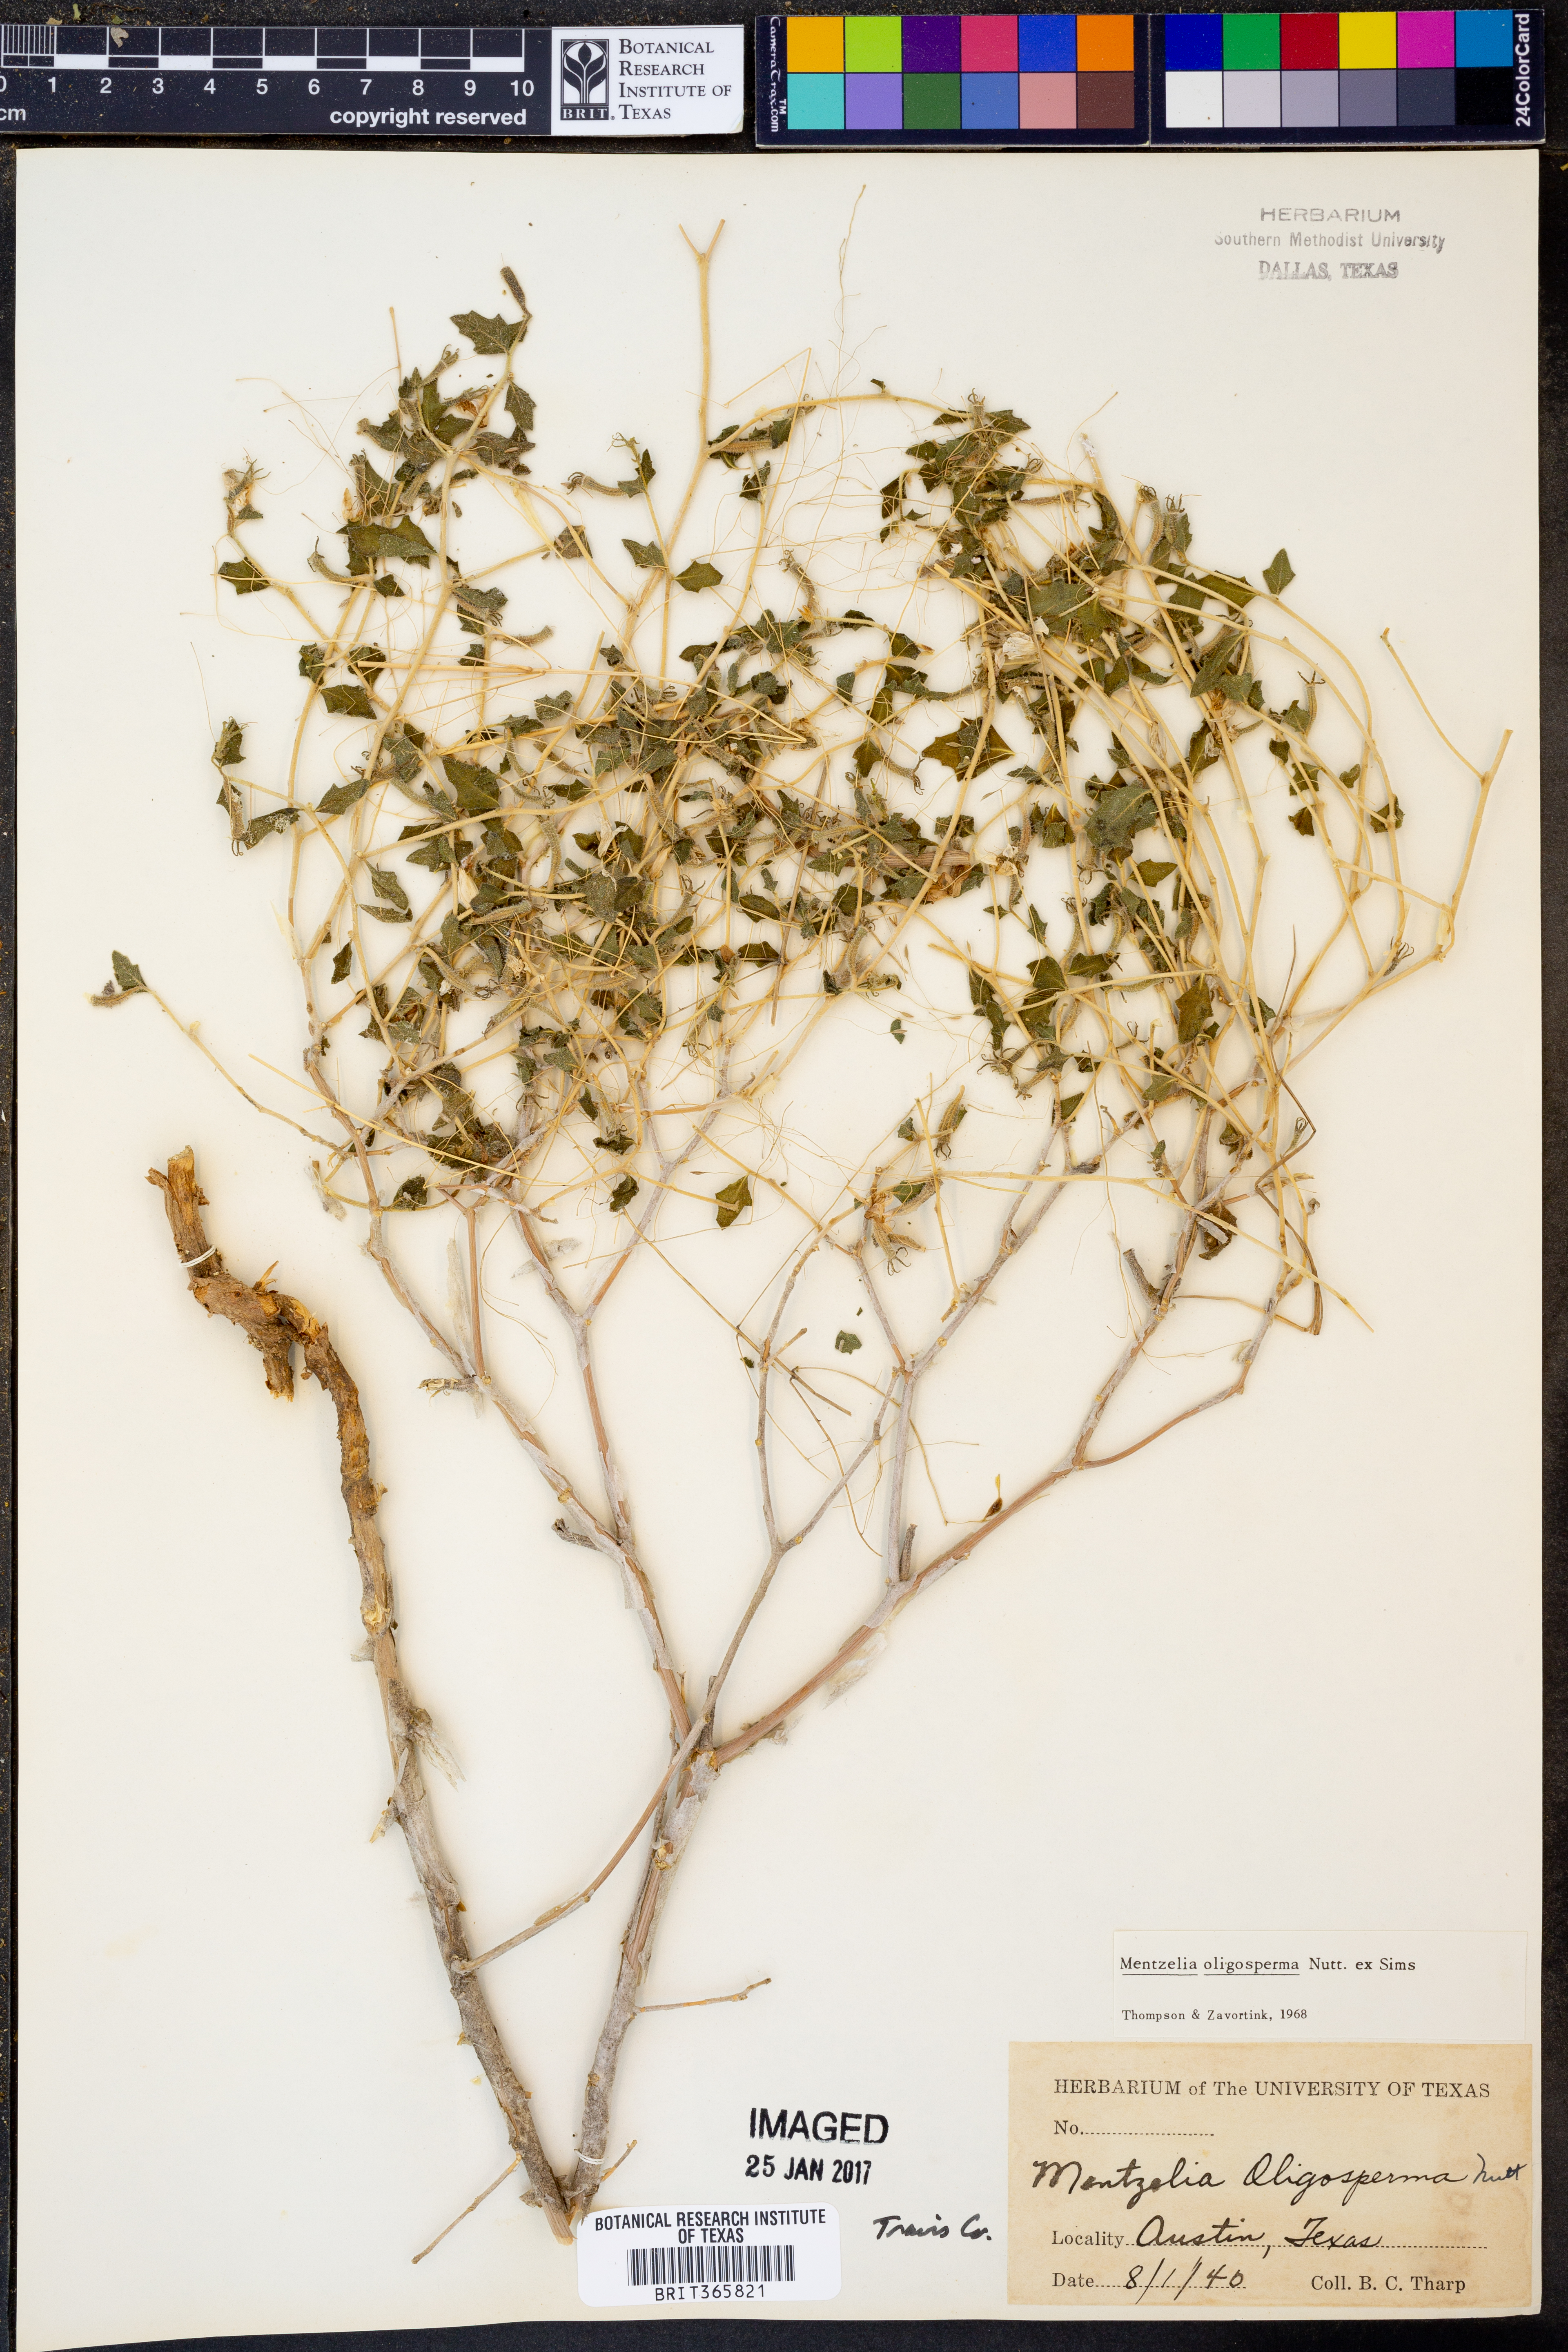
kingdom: Plantae
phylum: Tracheophyta
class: Magnoliopsida
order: Cornales
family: Loasaceae
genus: Mentzelia
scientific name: Mentzelia oligosperma
